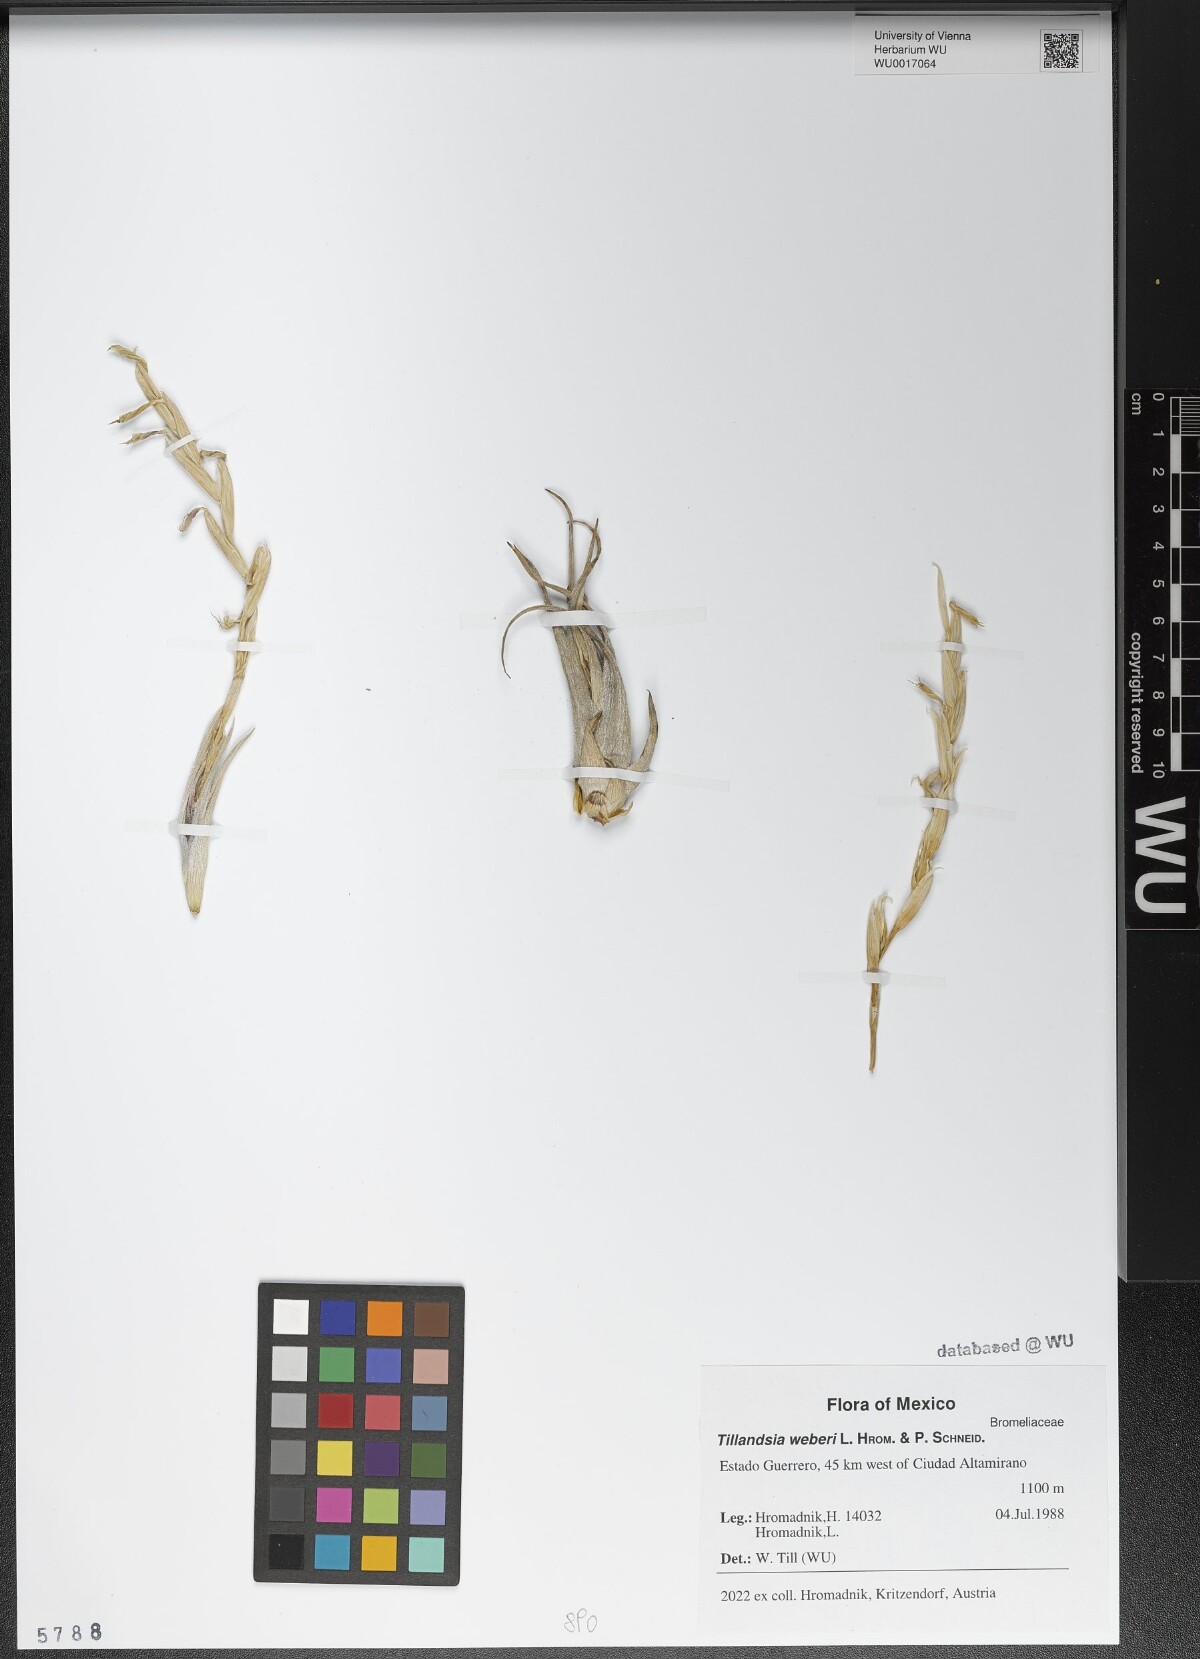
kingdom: Plantae
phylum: Tracheophyta
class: Liliopsida
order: Poales
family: Bromeliaceae
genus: Tillandsia
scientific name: Tillandsia weberi
